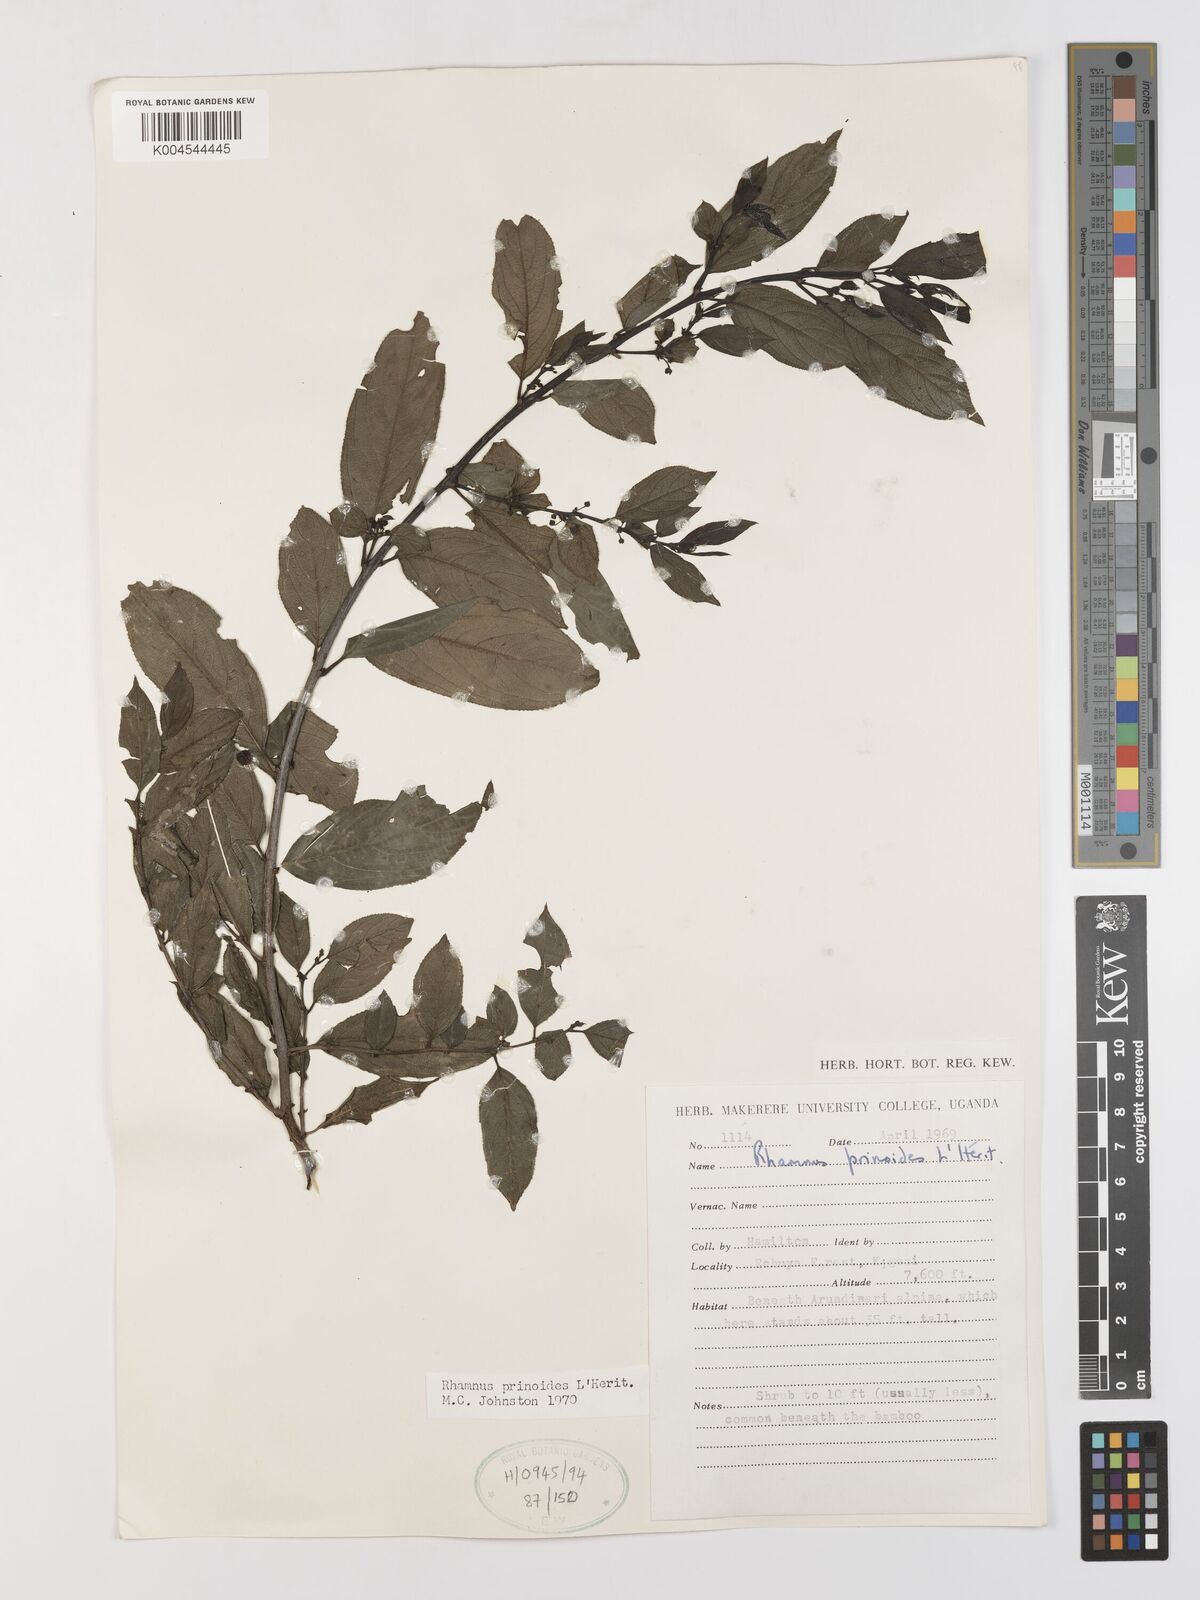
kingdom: Plantae
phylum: Tracheophyta
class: Magnoliopsida
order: Rosales
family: Rhamnaceae
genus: Rhamnus
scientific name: Rhamnus prinoides
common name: Dogwood
